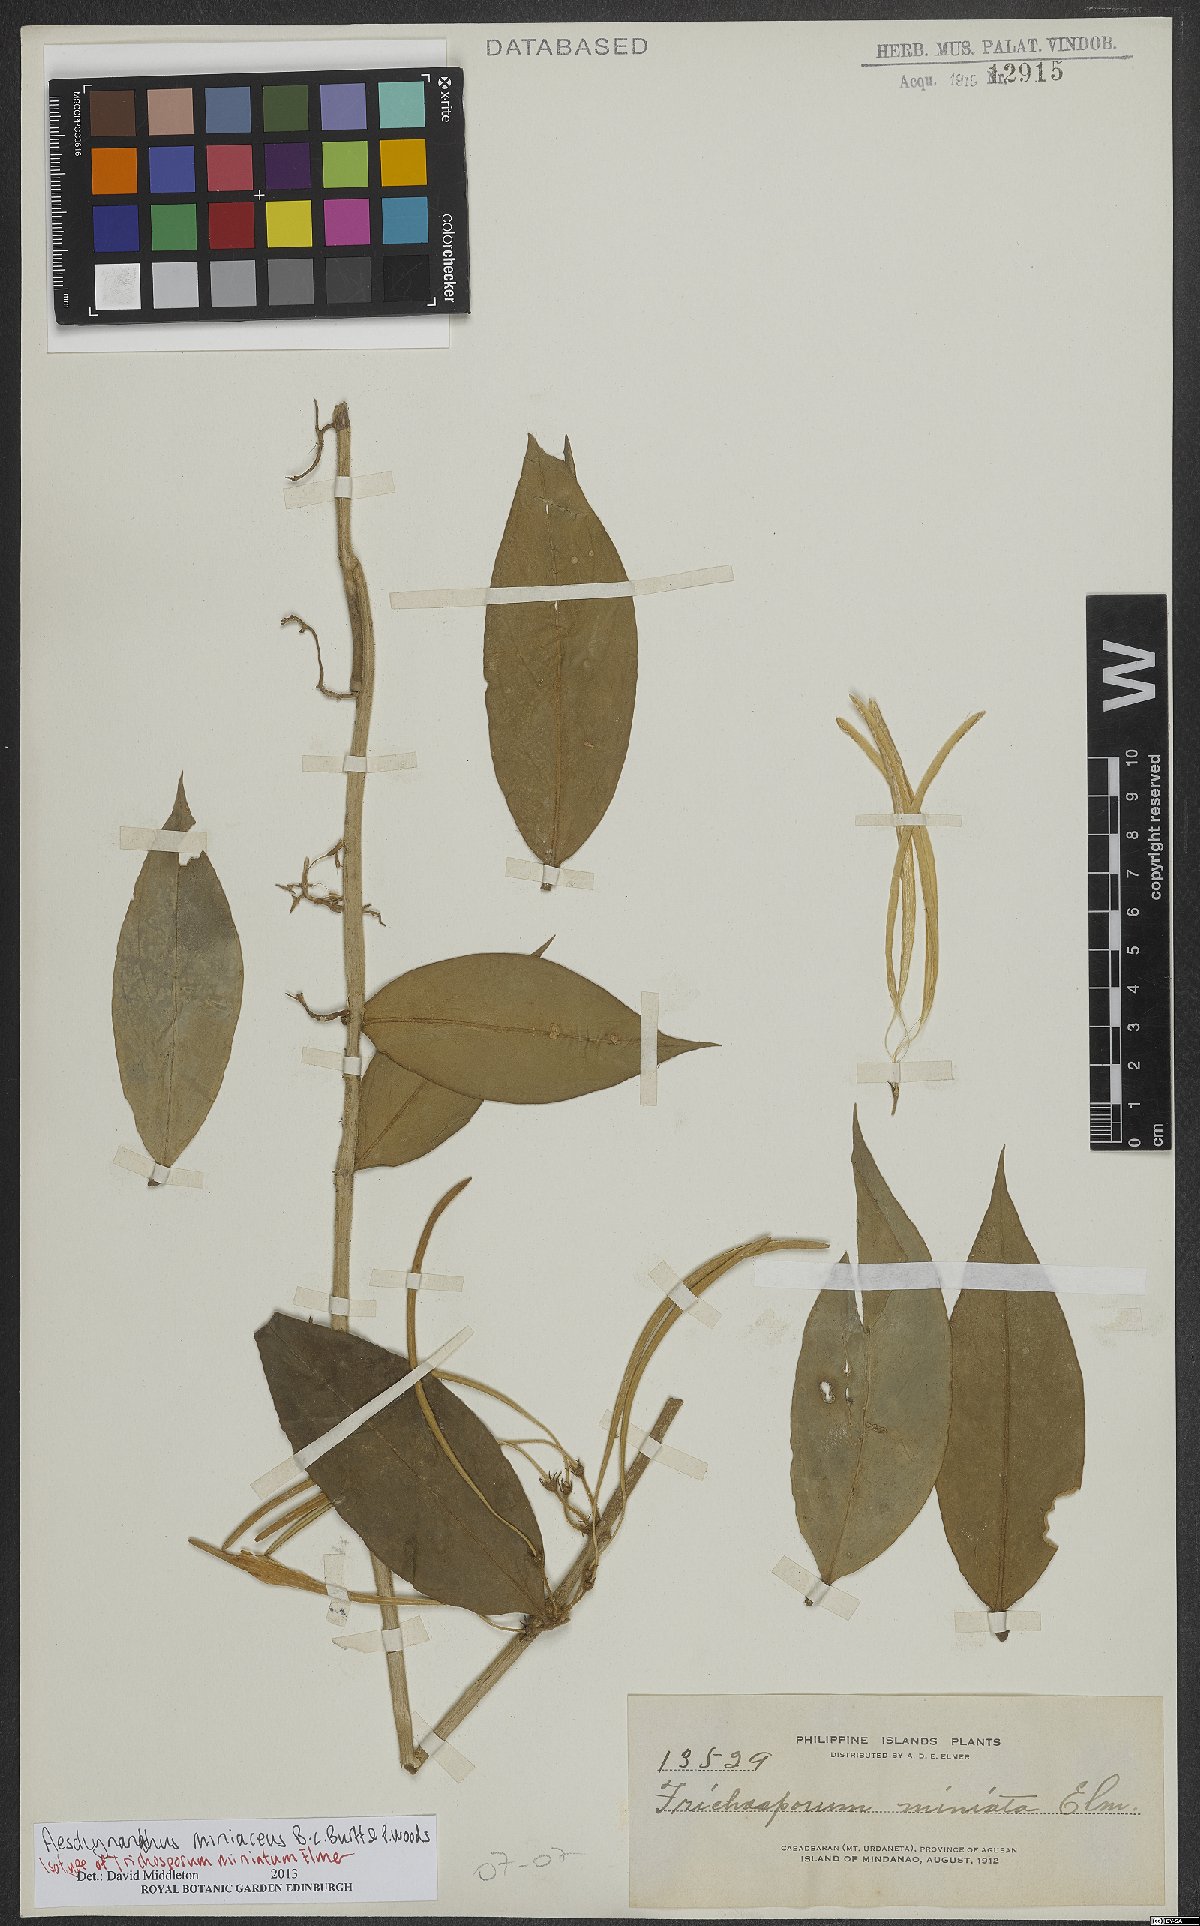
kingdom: Plantae
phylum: Tracheophyta
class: Magnoliopsida
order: Lamiales
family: Gesneriaceae
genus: Aeschynanthus
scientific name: Aeschynanthus miniaceus
